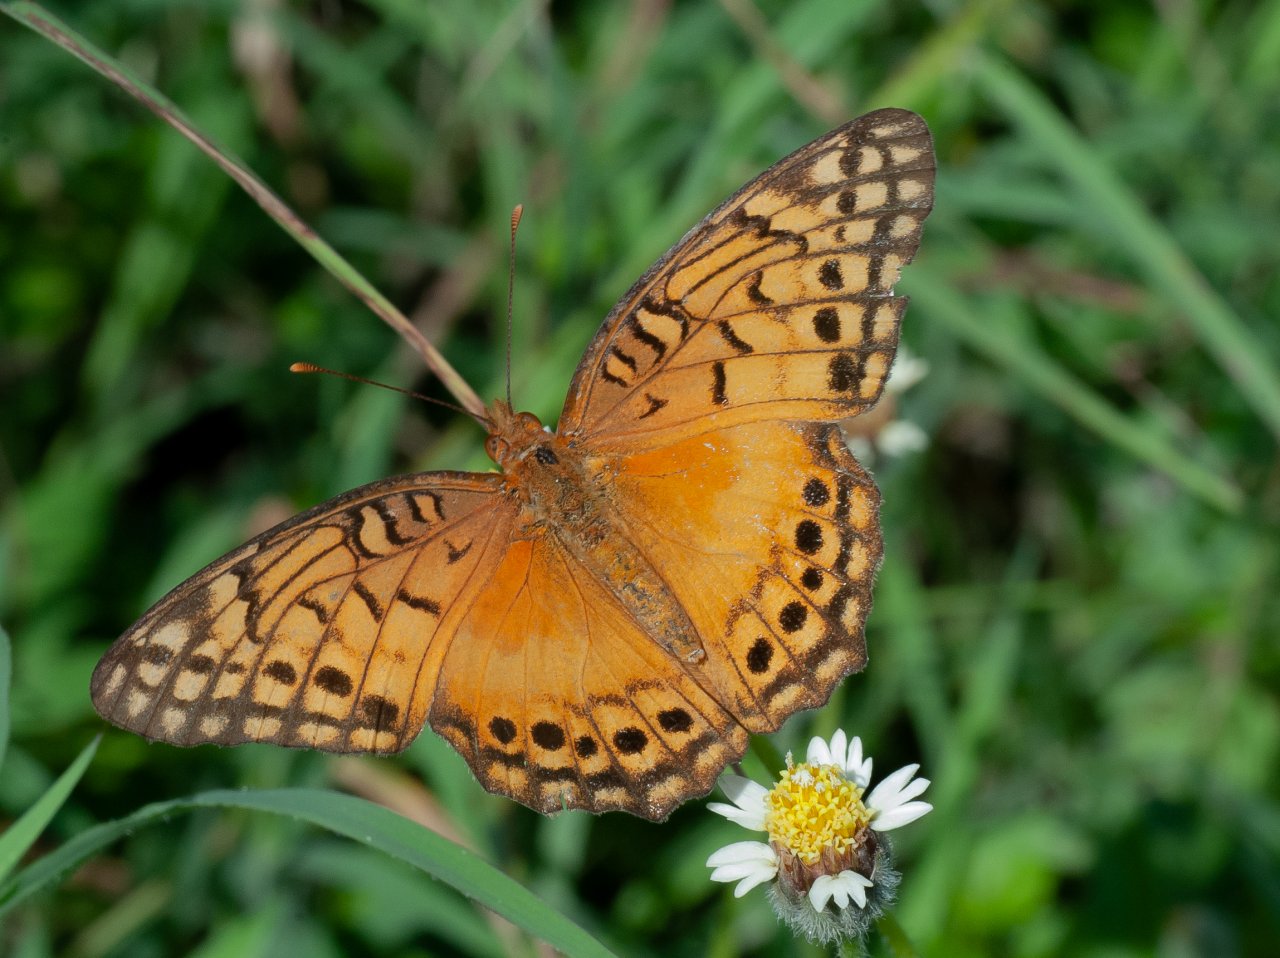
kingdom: Animalia
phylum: Arthropoda
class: Insecta
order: Lepidoptera
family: Nymphalidae
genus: Euptoieta
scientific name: Euptoieta hegesia
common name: Mexican Fritillary
